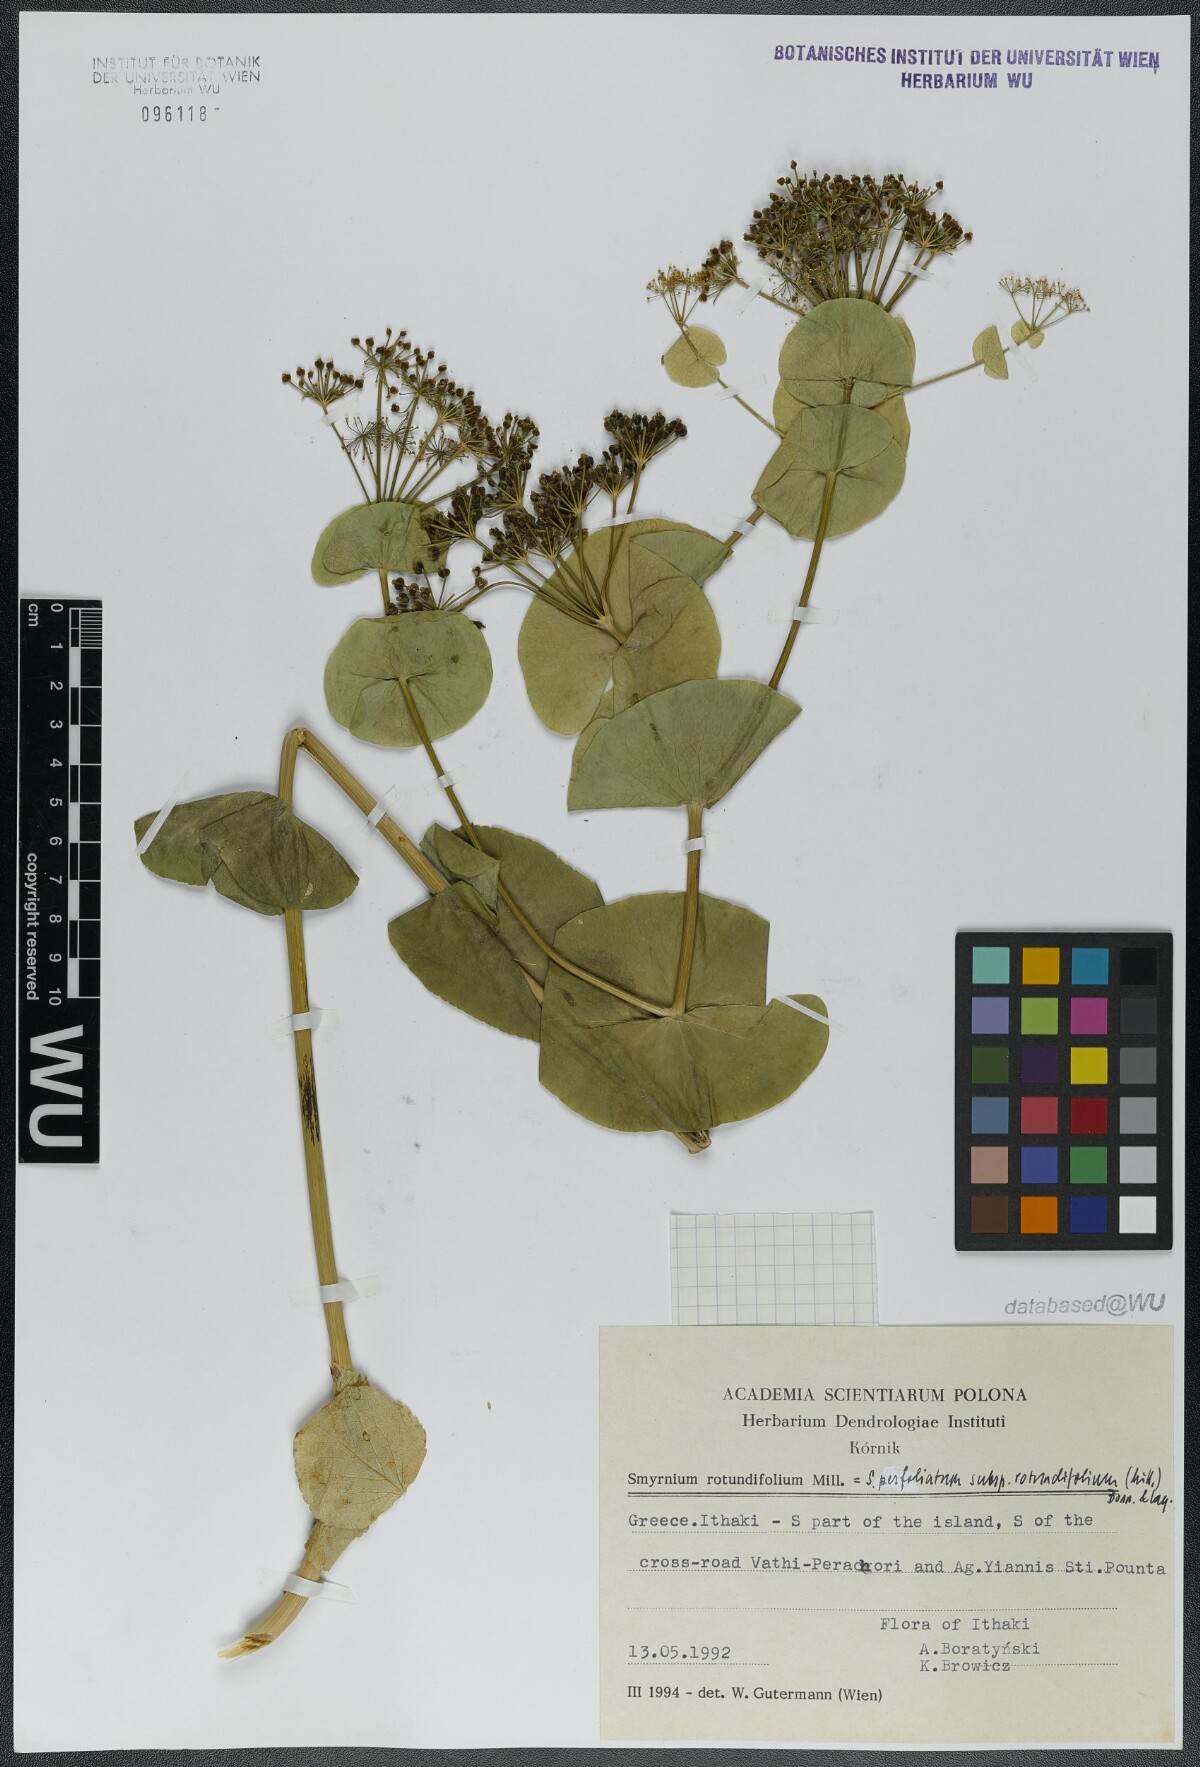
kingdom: Plantae
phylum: Tracheophyta
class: Magnoliopsida
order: Apiales
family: Apiaceae
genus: Smyrnium
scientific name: Smyrnium perfoliatum
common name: Perfoliate alexanders
